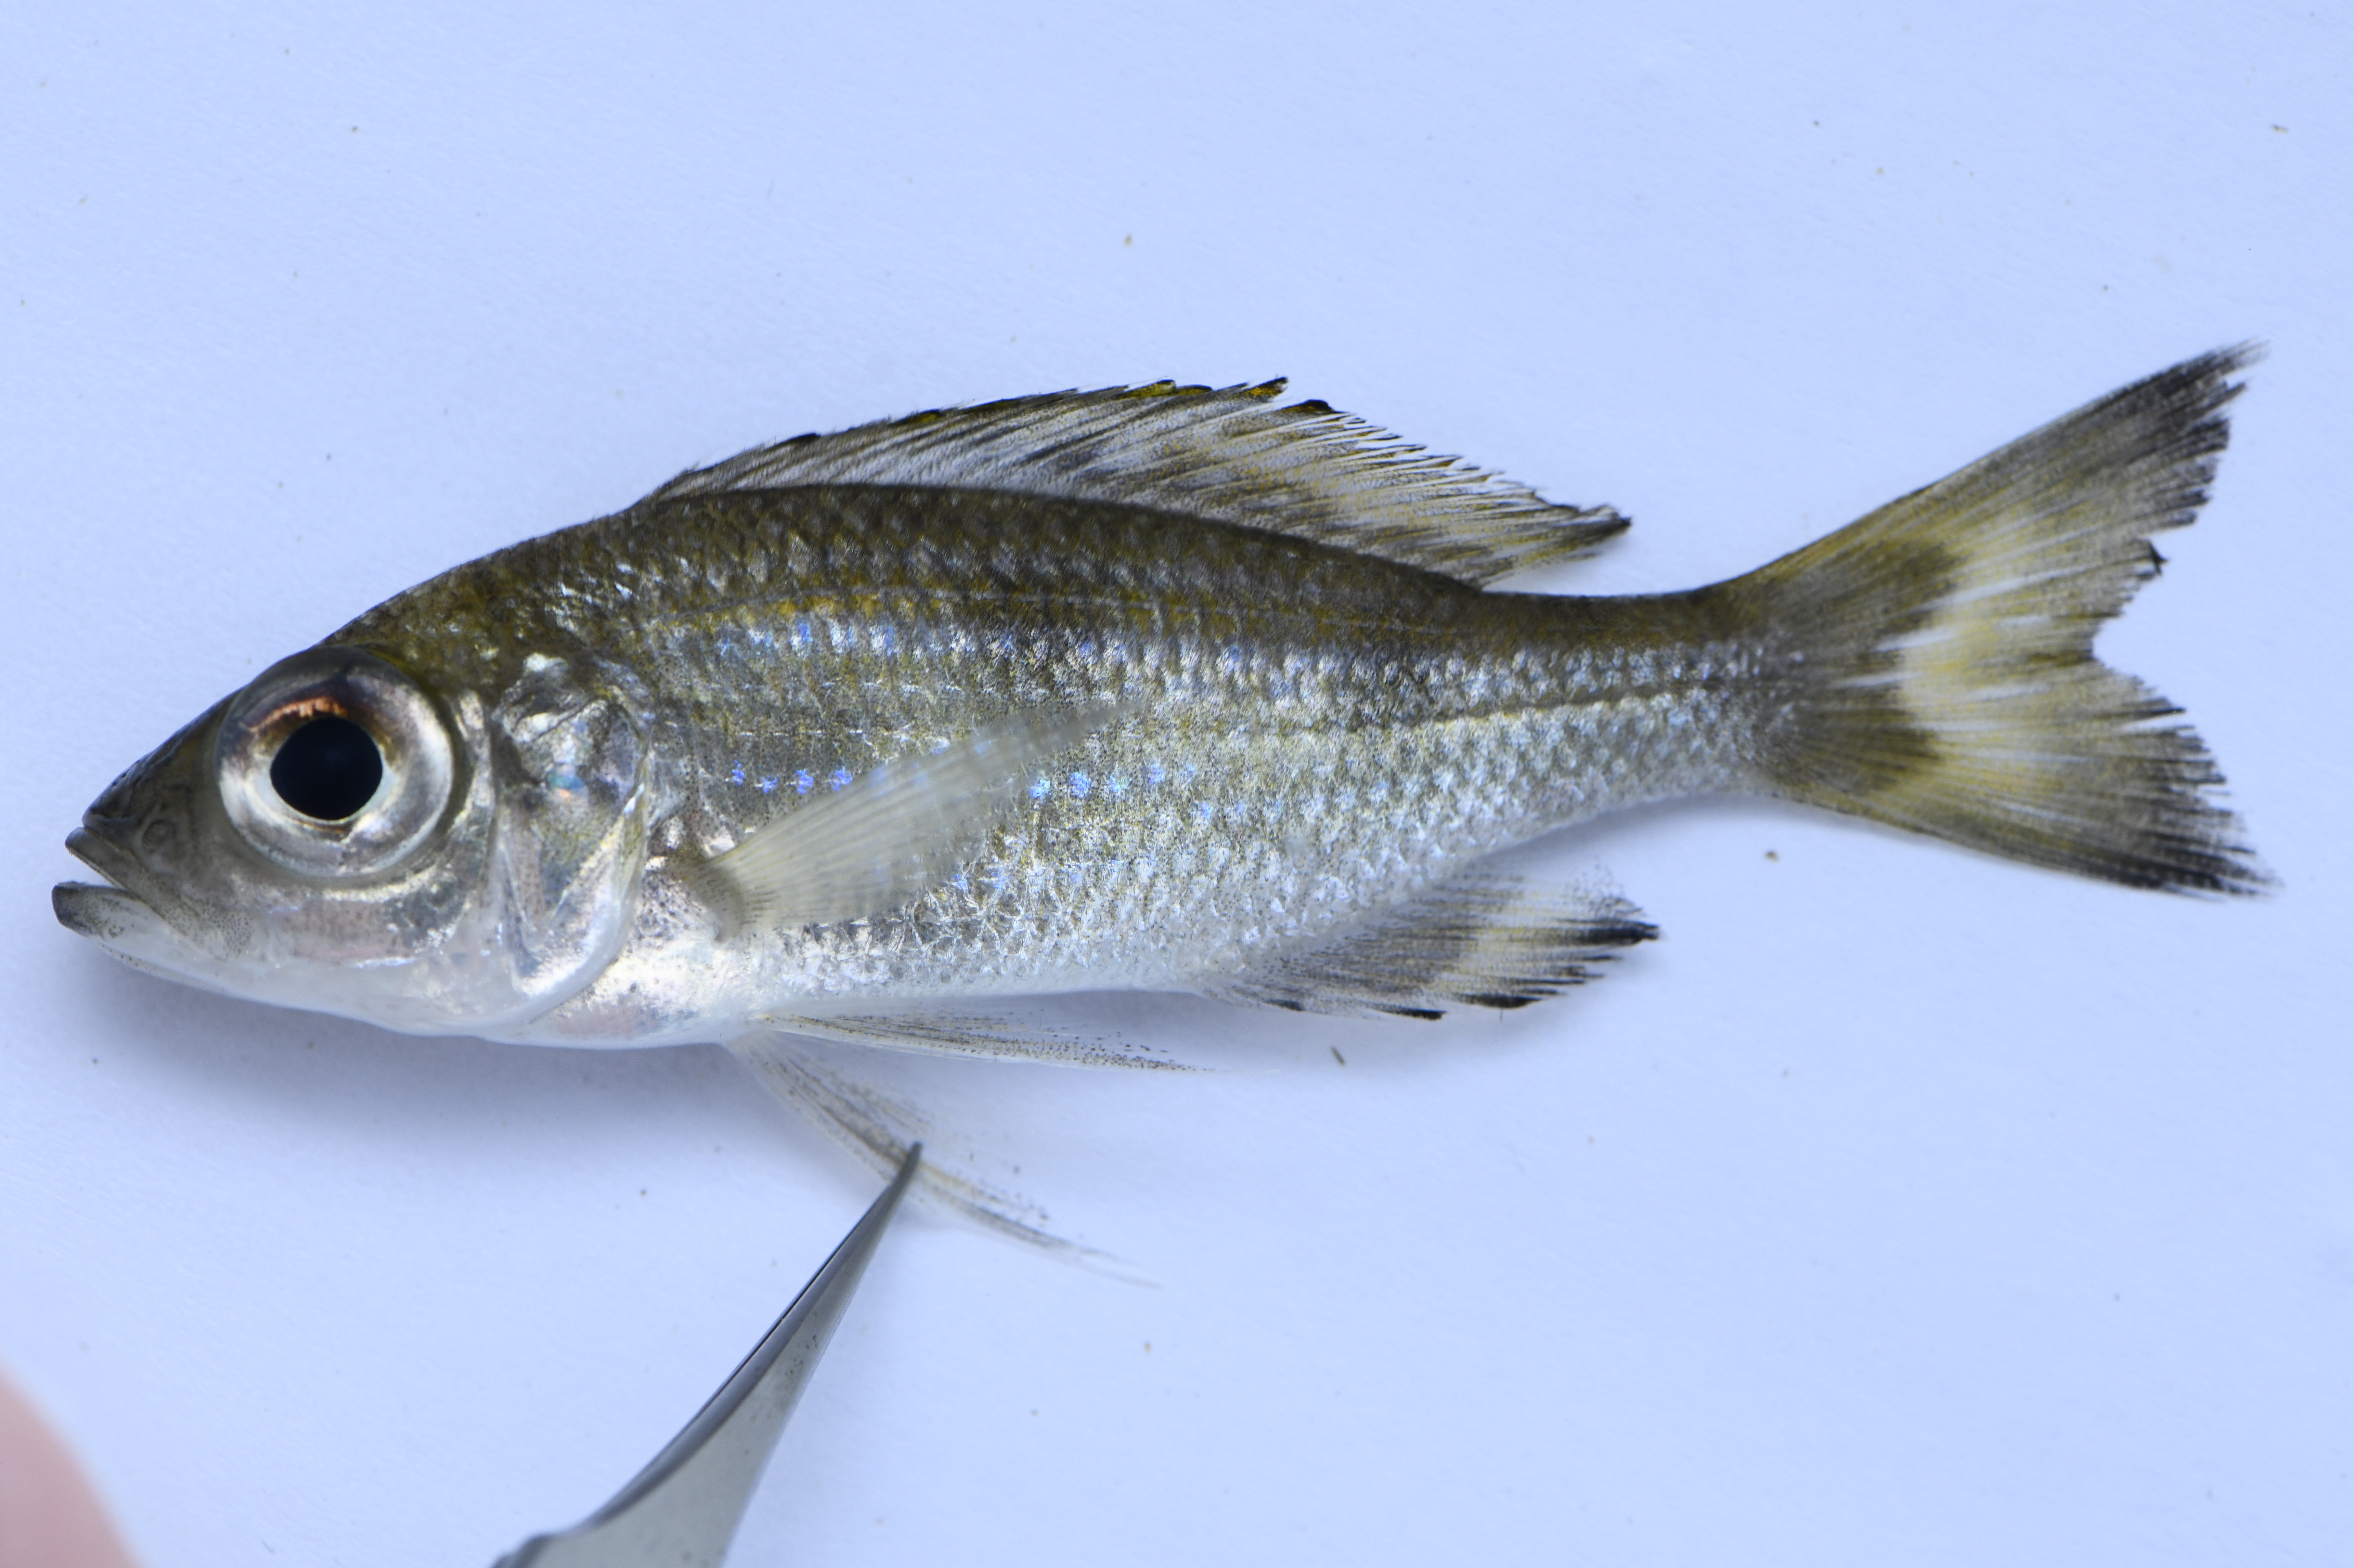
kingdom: Animalia
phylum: Chordata
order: Perciformes
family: Cichlidae
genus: Aulonocranus
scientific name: Aulonocranus dewindti
